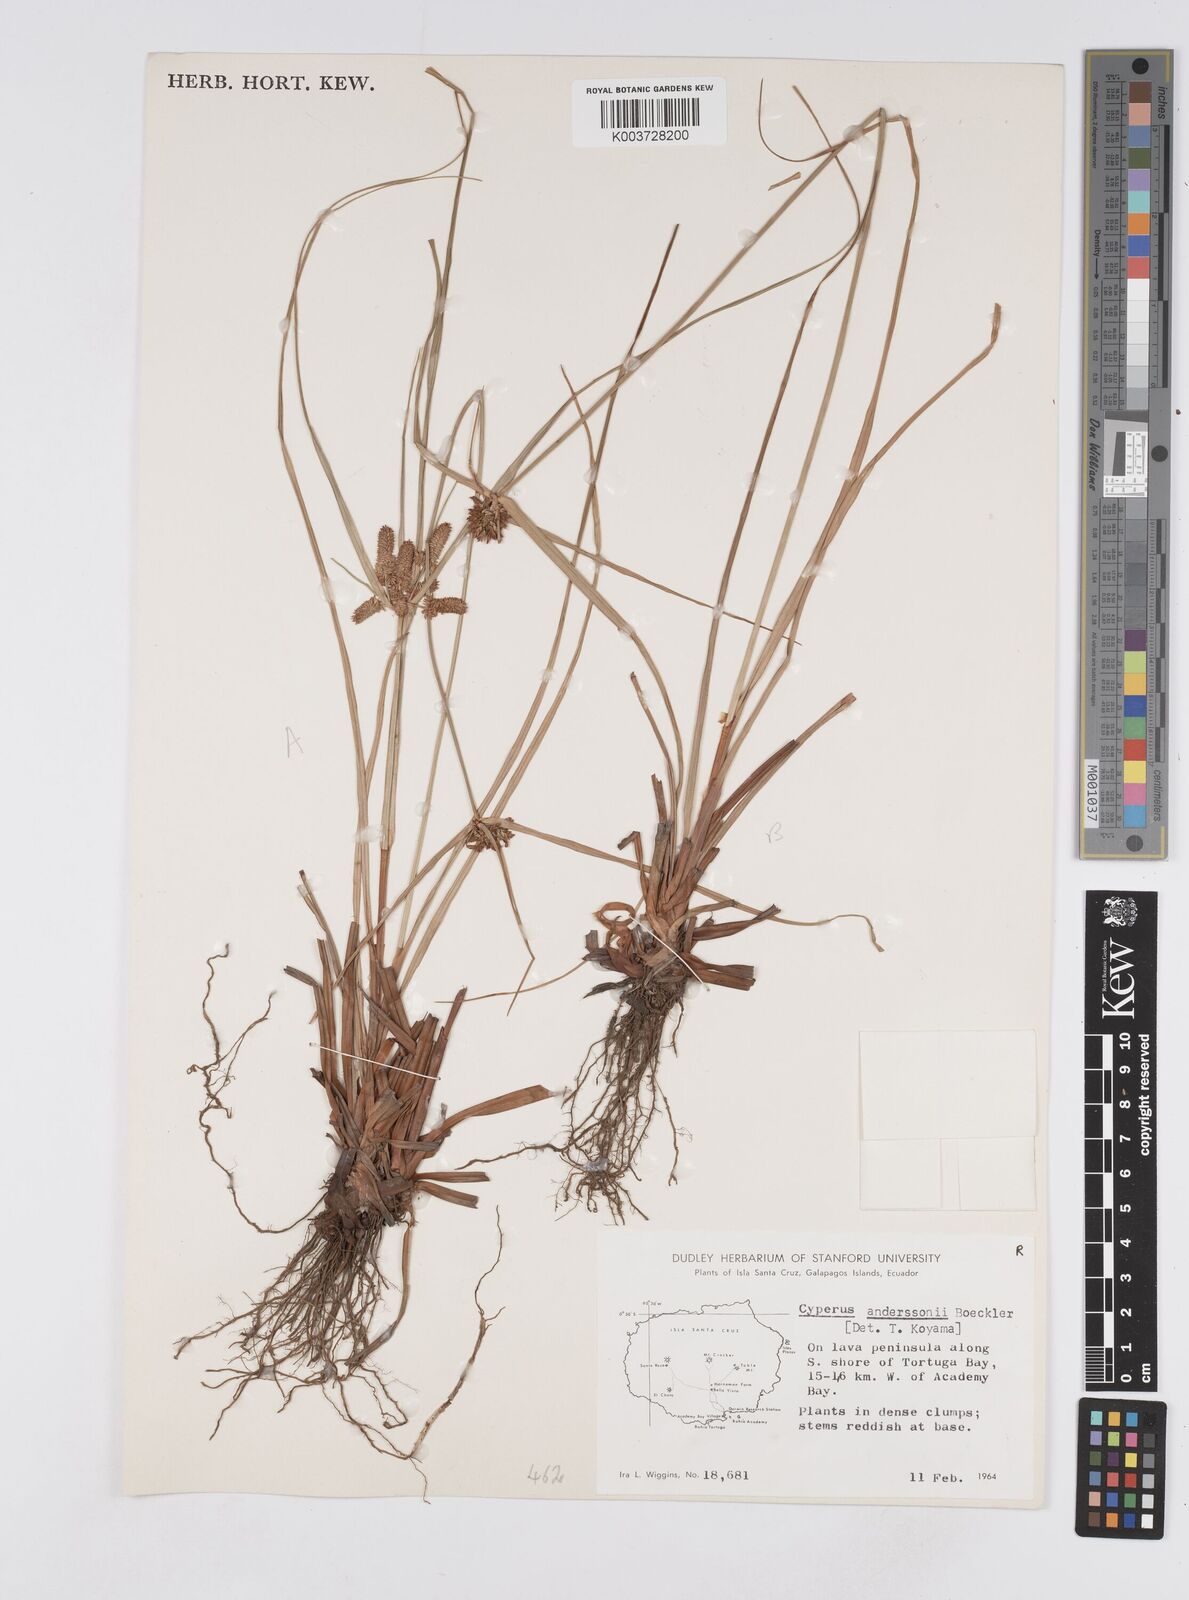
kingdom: Plantae
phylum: Tracheophyta
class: Liliopsida
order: Poales
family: Cyperaceae
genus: Cyperus
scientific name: Cyperus anderssonii
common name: Andersson's sedge
